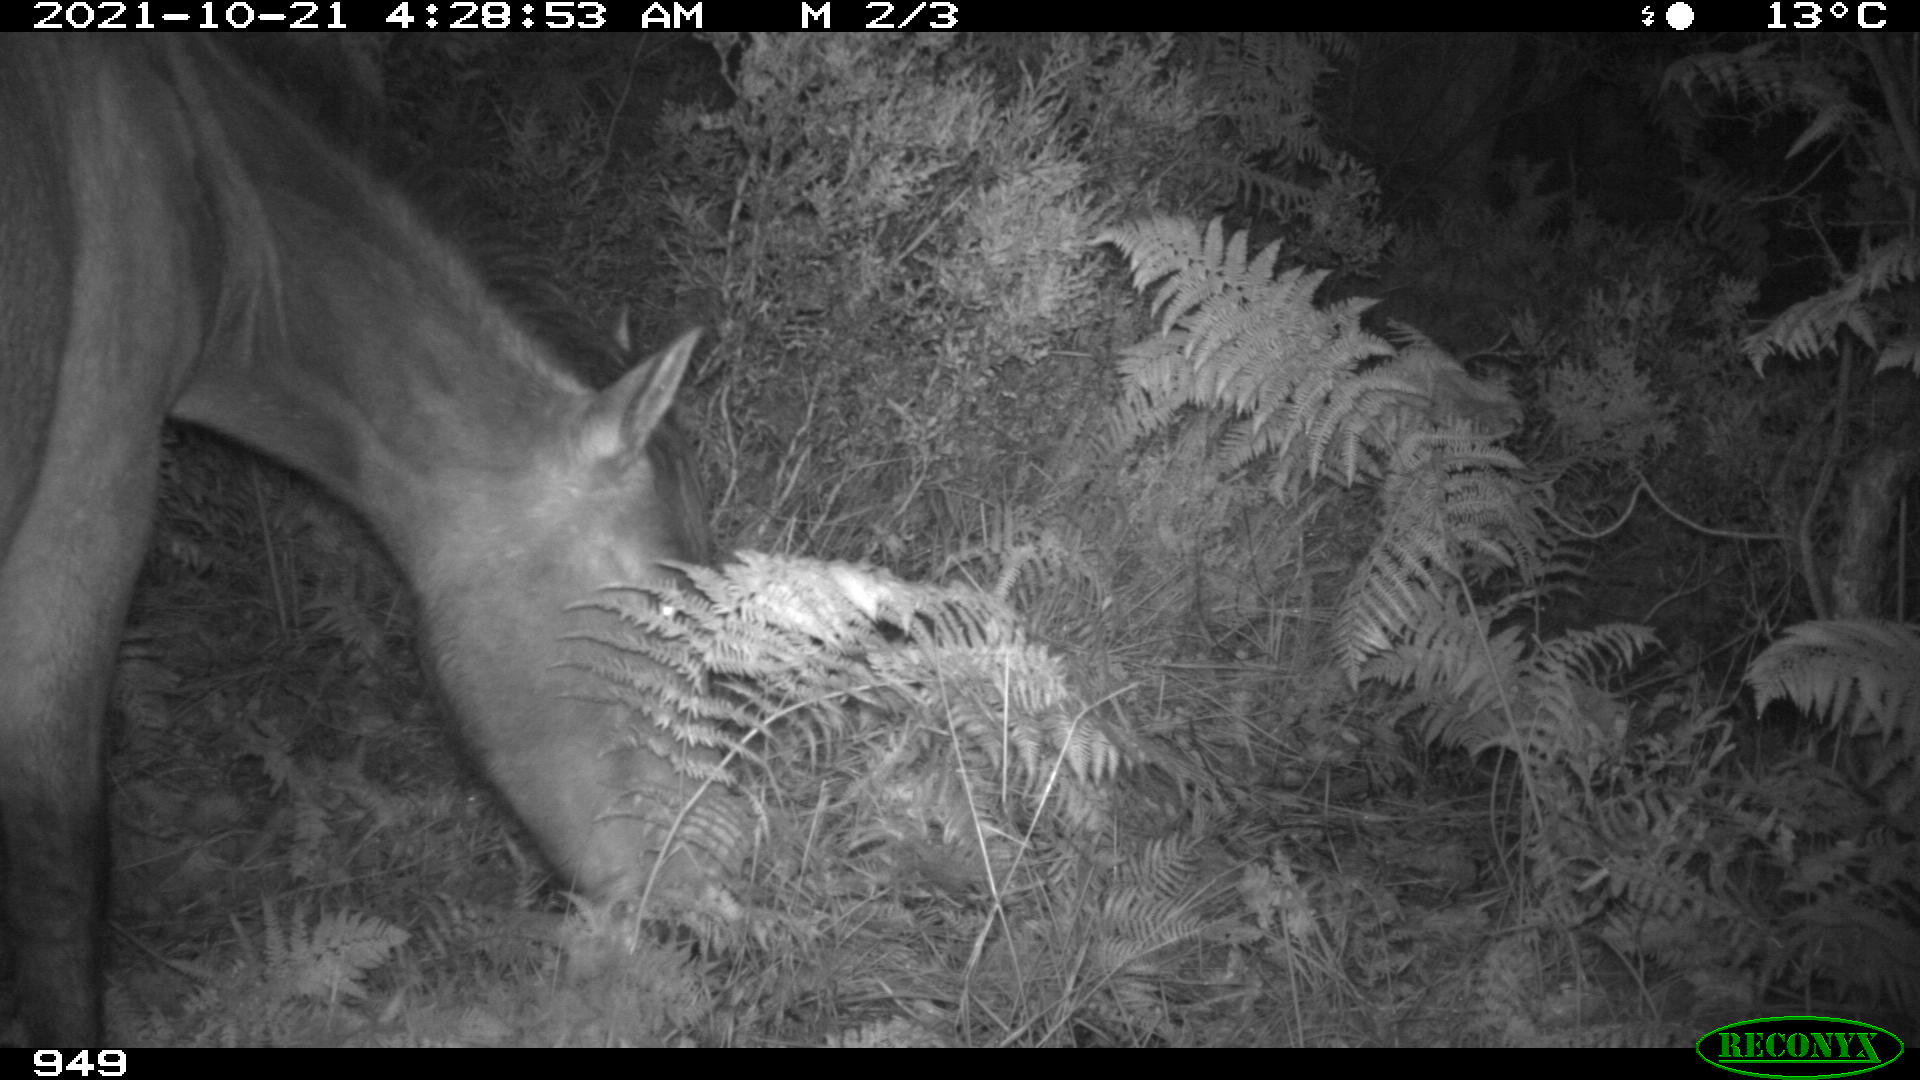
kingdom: Animalia
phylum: Chordata
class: Mammalia
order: Perissodactyla
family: Equidae
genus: Equus
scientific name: Equus caballus
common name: Horse
